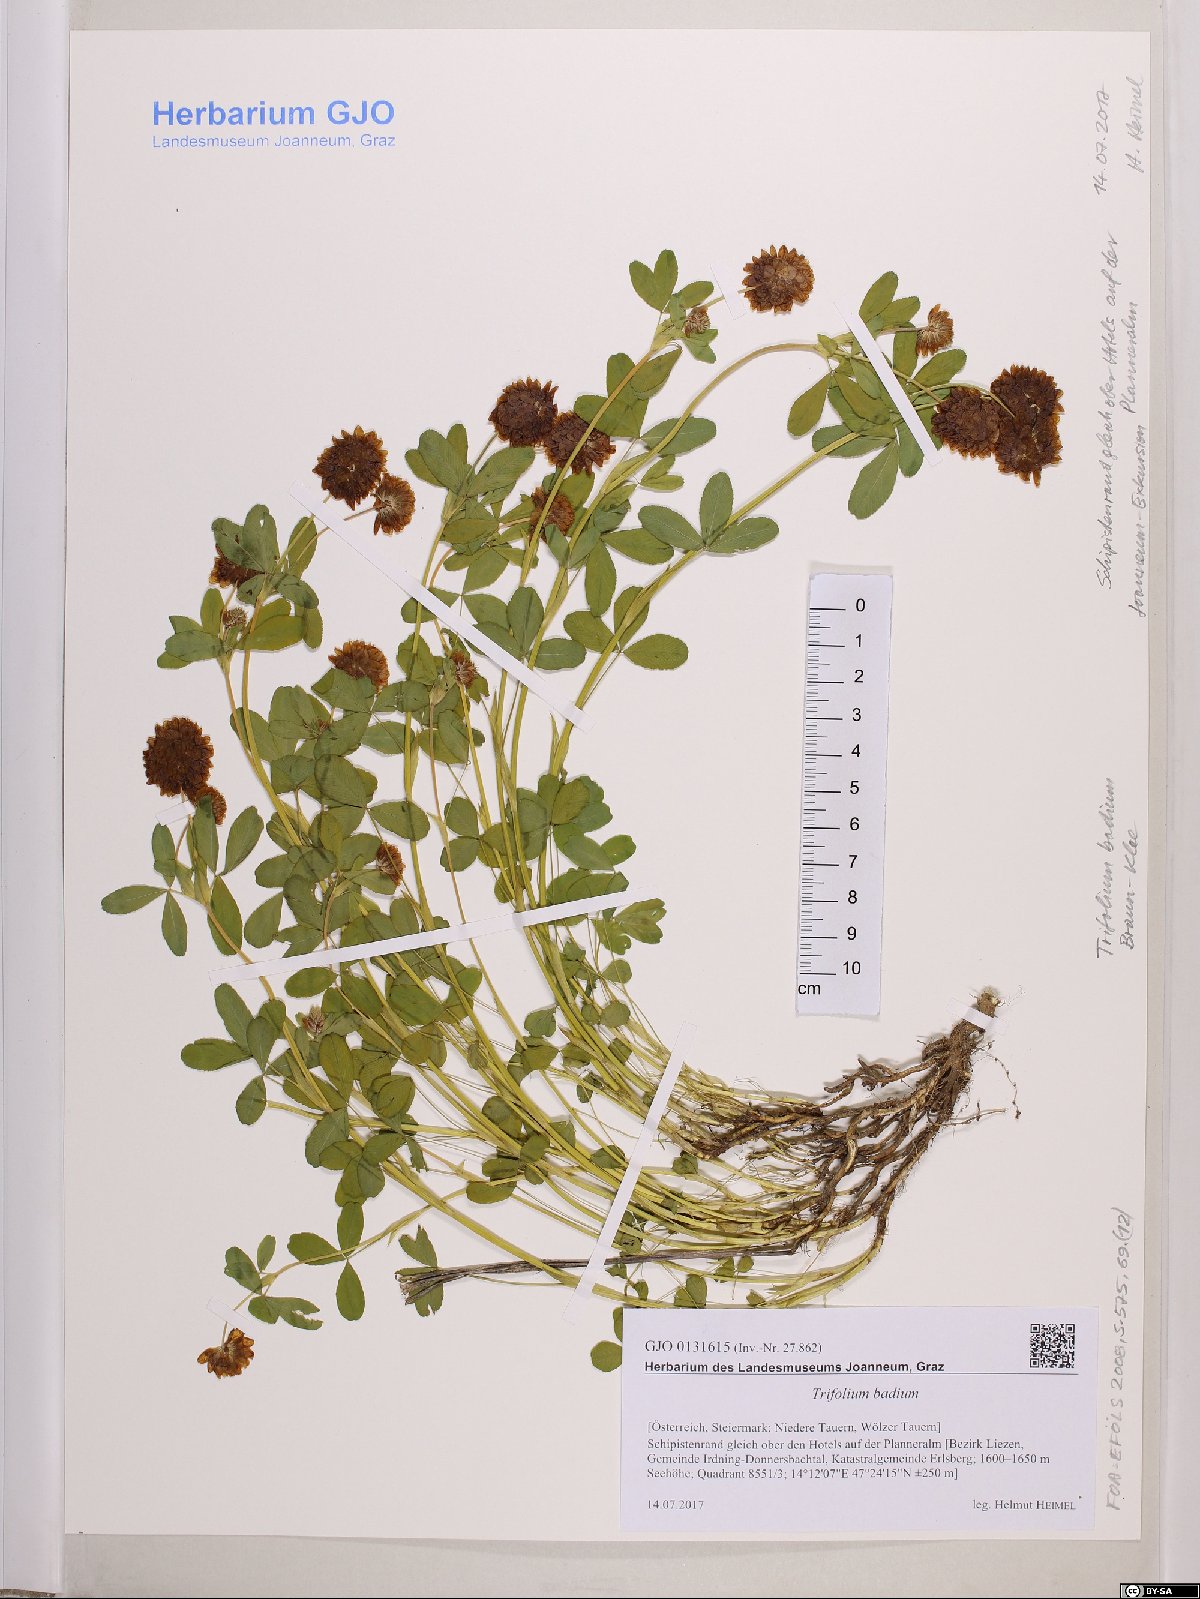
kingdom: Plantae
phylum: Tracheophyta
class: Magnoliopsida
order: Fabales
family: Fabaceae
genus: Trifolium
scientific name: Trifolium badium
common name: Brown clover
